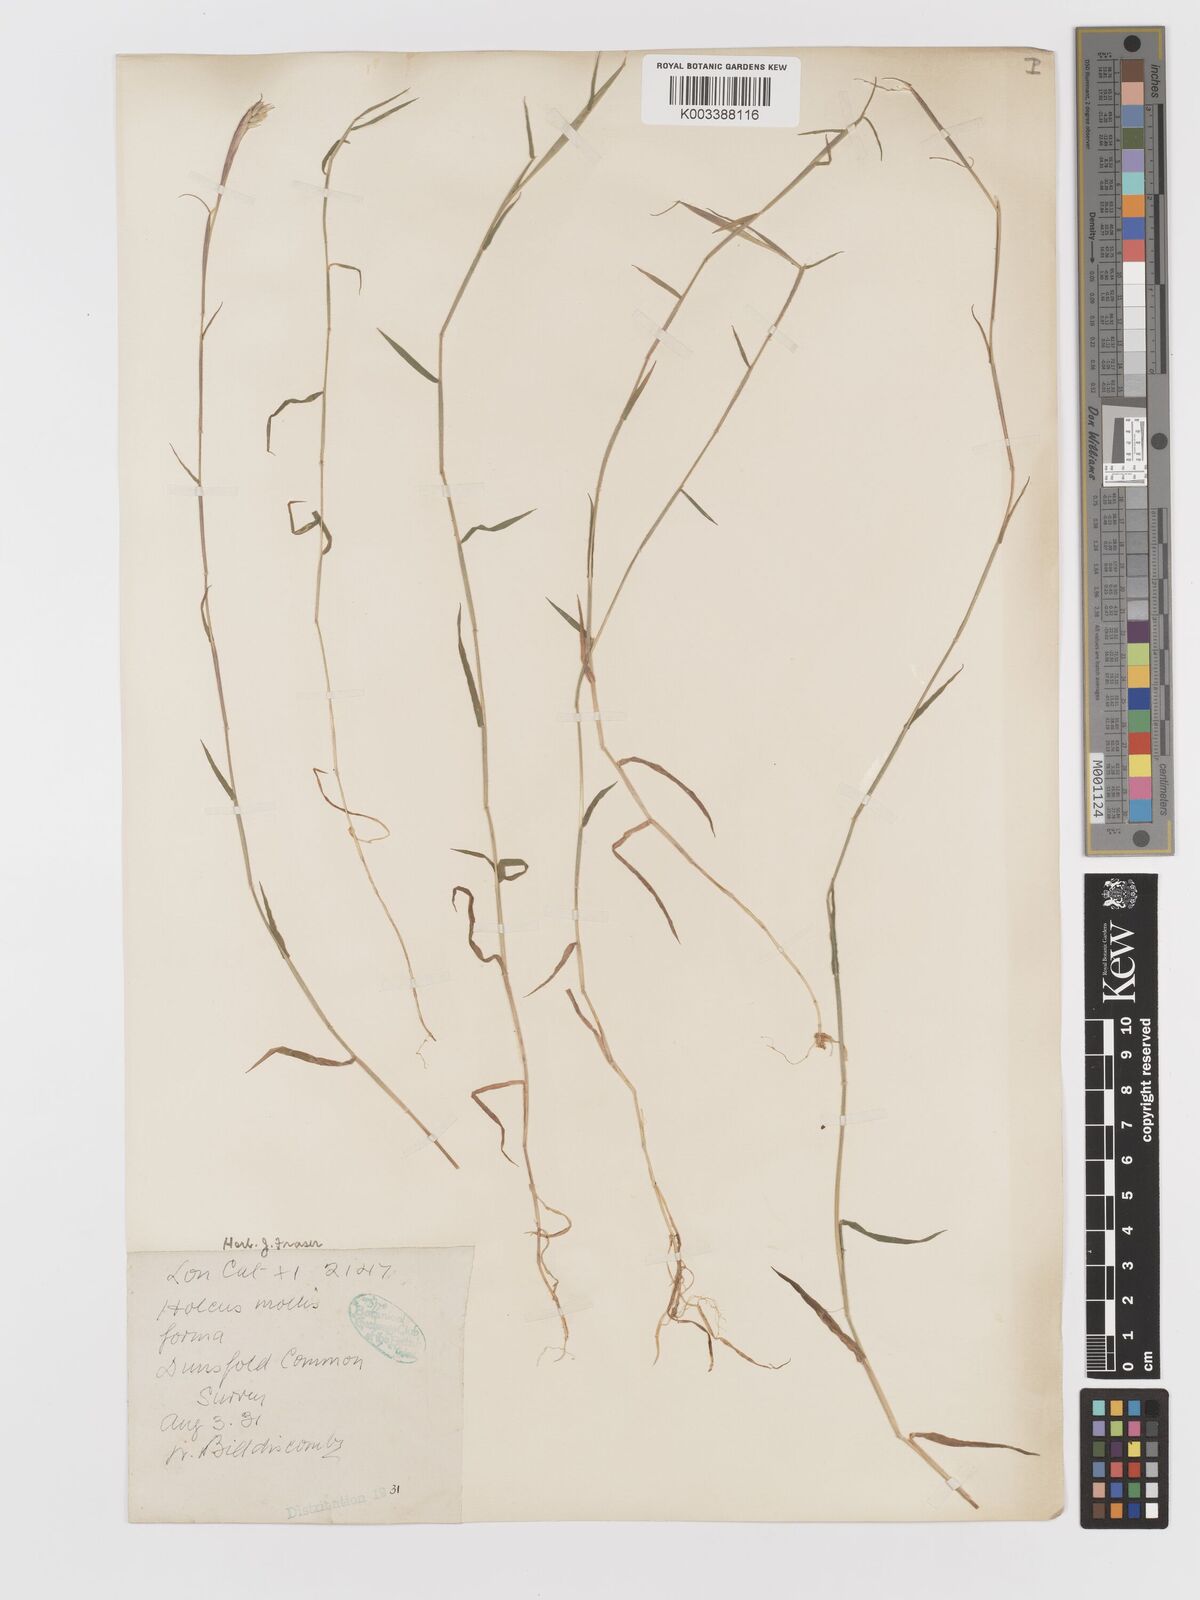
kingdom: Plantae
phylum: Tracheophyta
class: Liliopsida
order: Poales
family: Poaceae
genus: Holcus
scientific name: Holcus mollis
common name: Creeping velvetgrass
